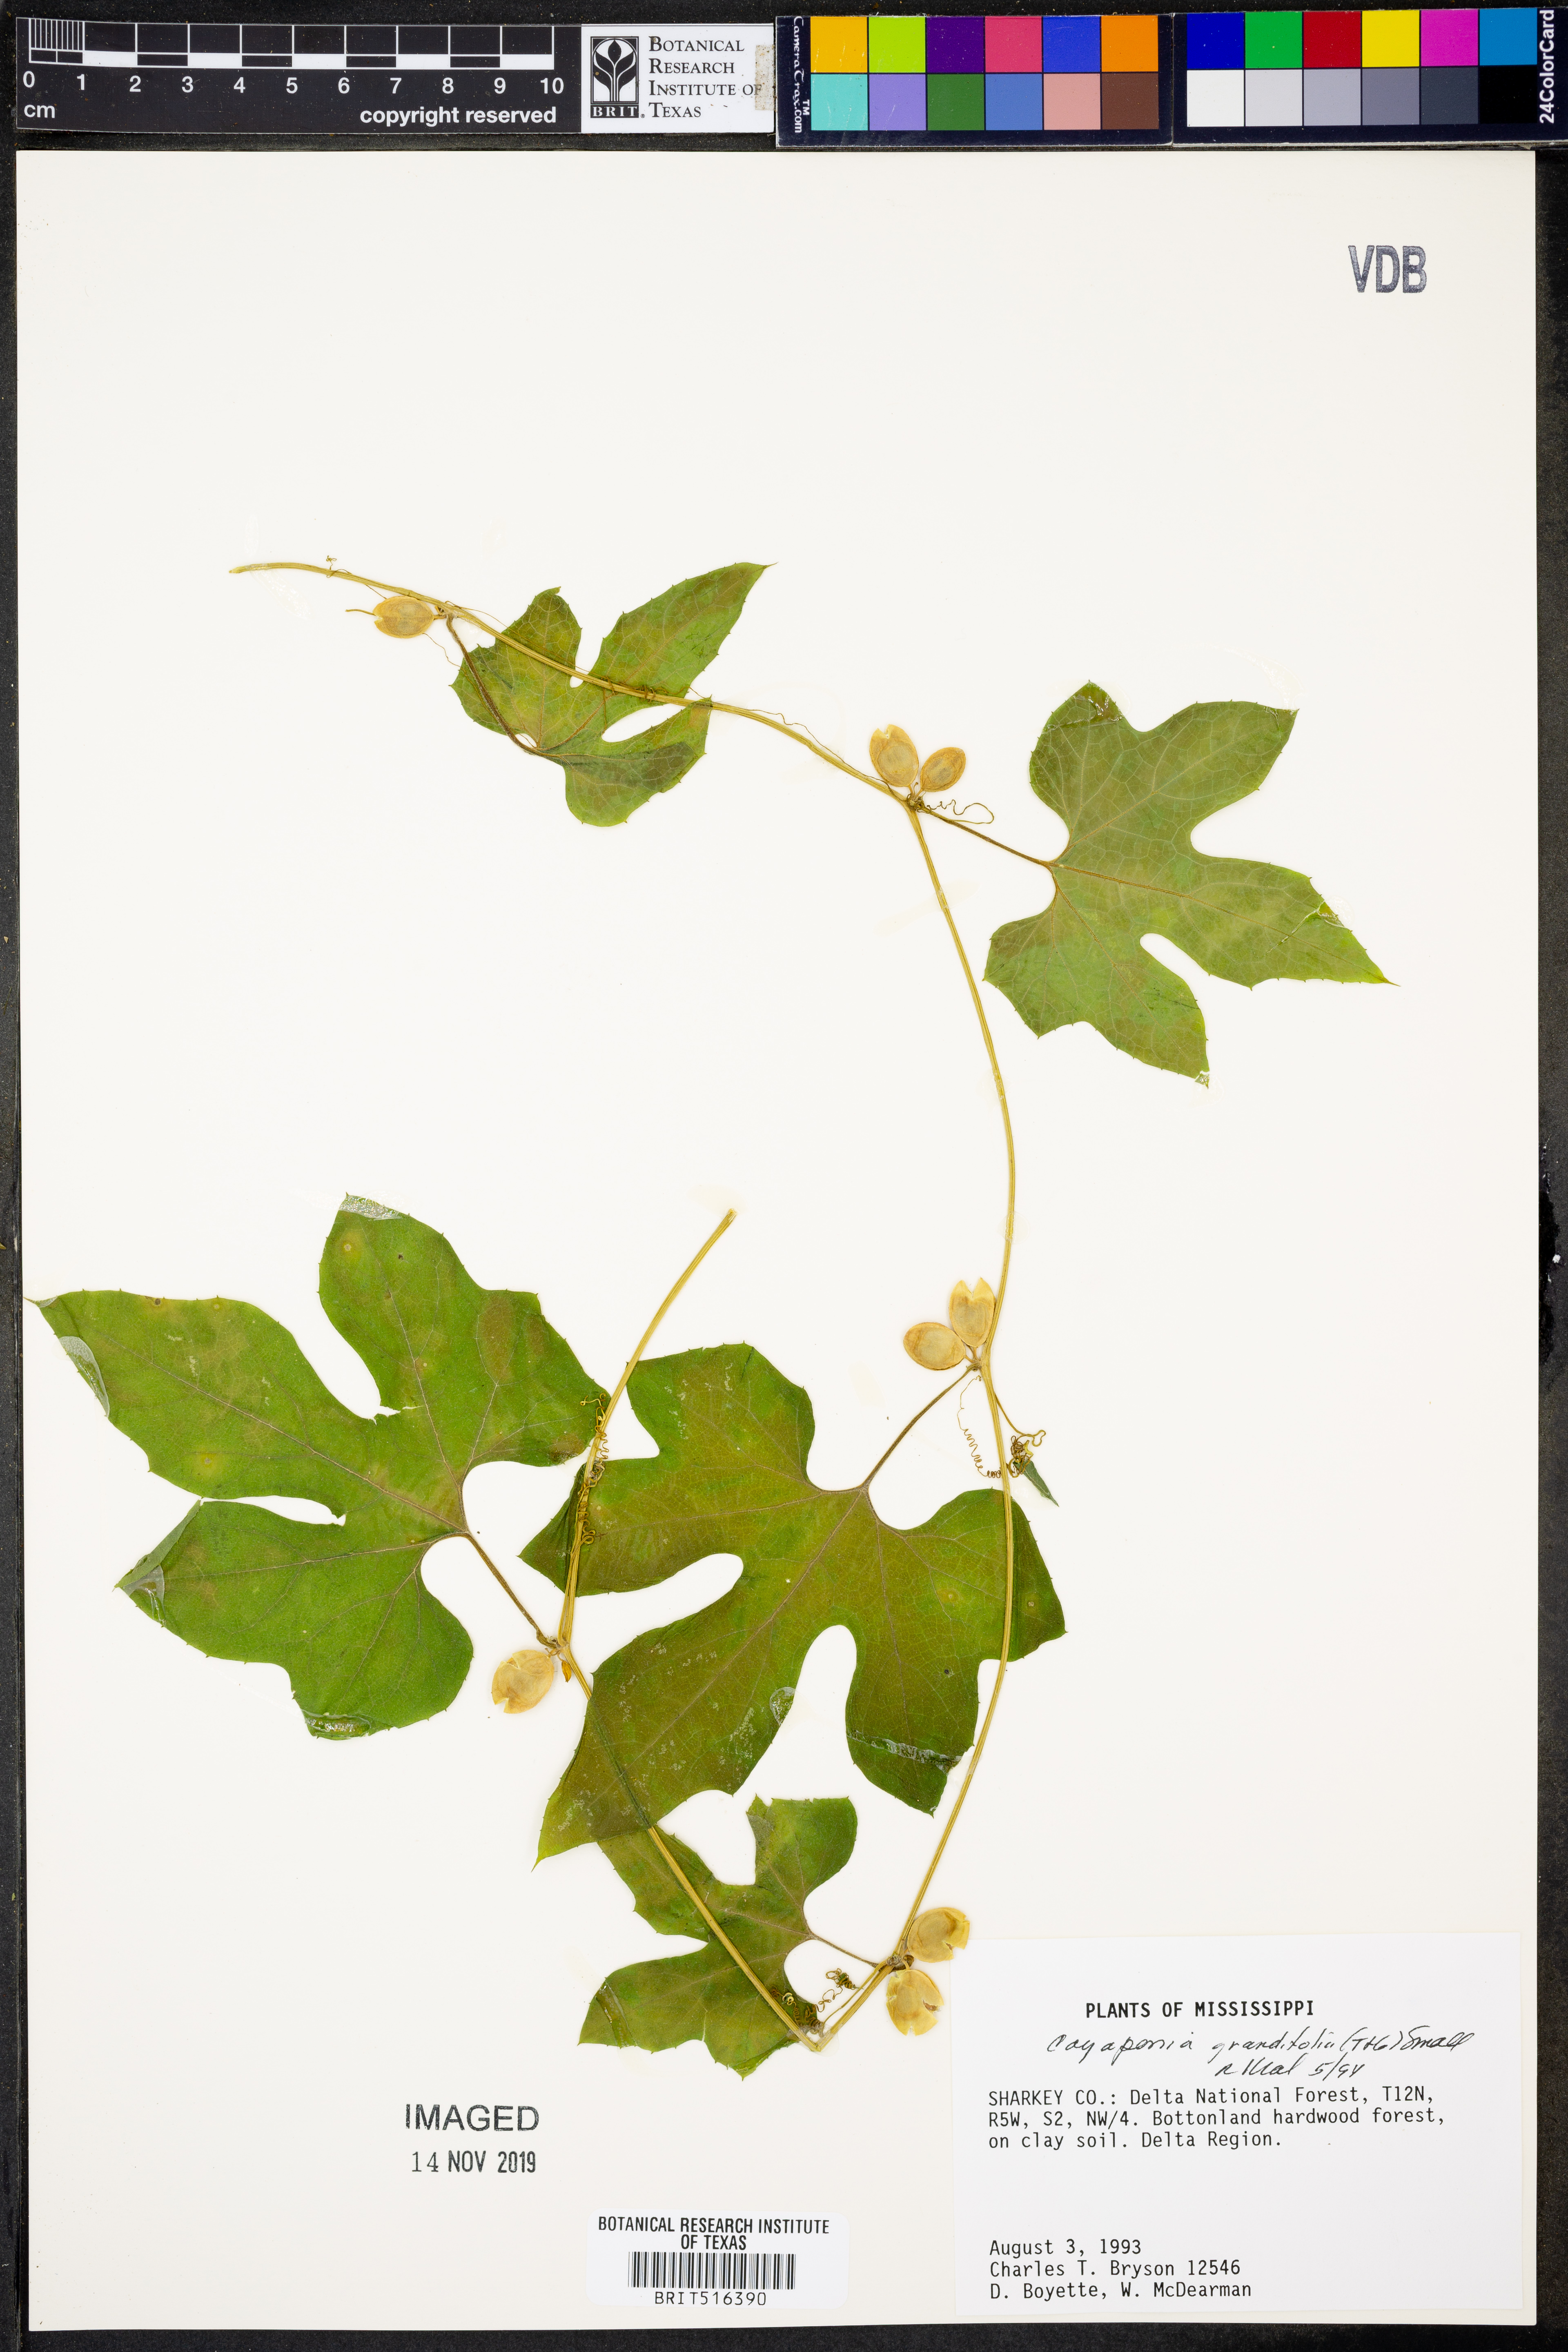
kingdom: Plantae
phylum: Tracheophyta
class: Magnoliopsida
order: Cucurbitales
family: Cucurbitaceae
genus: Cayaponia
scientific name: Cayaponia quinqueloba
